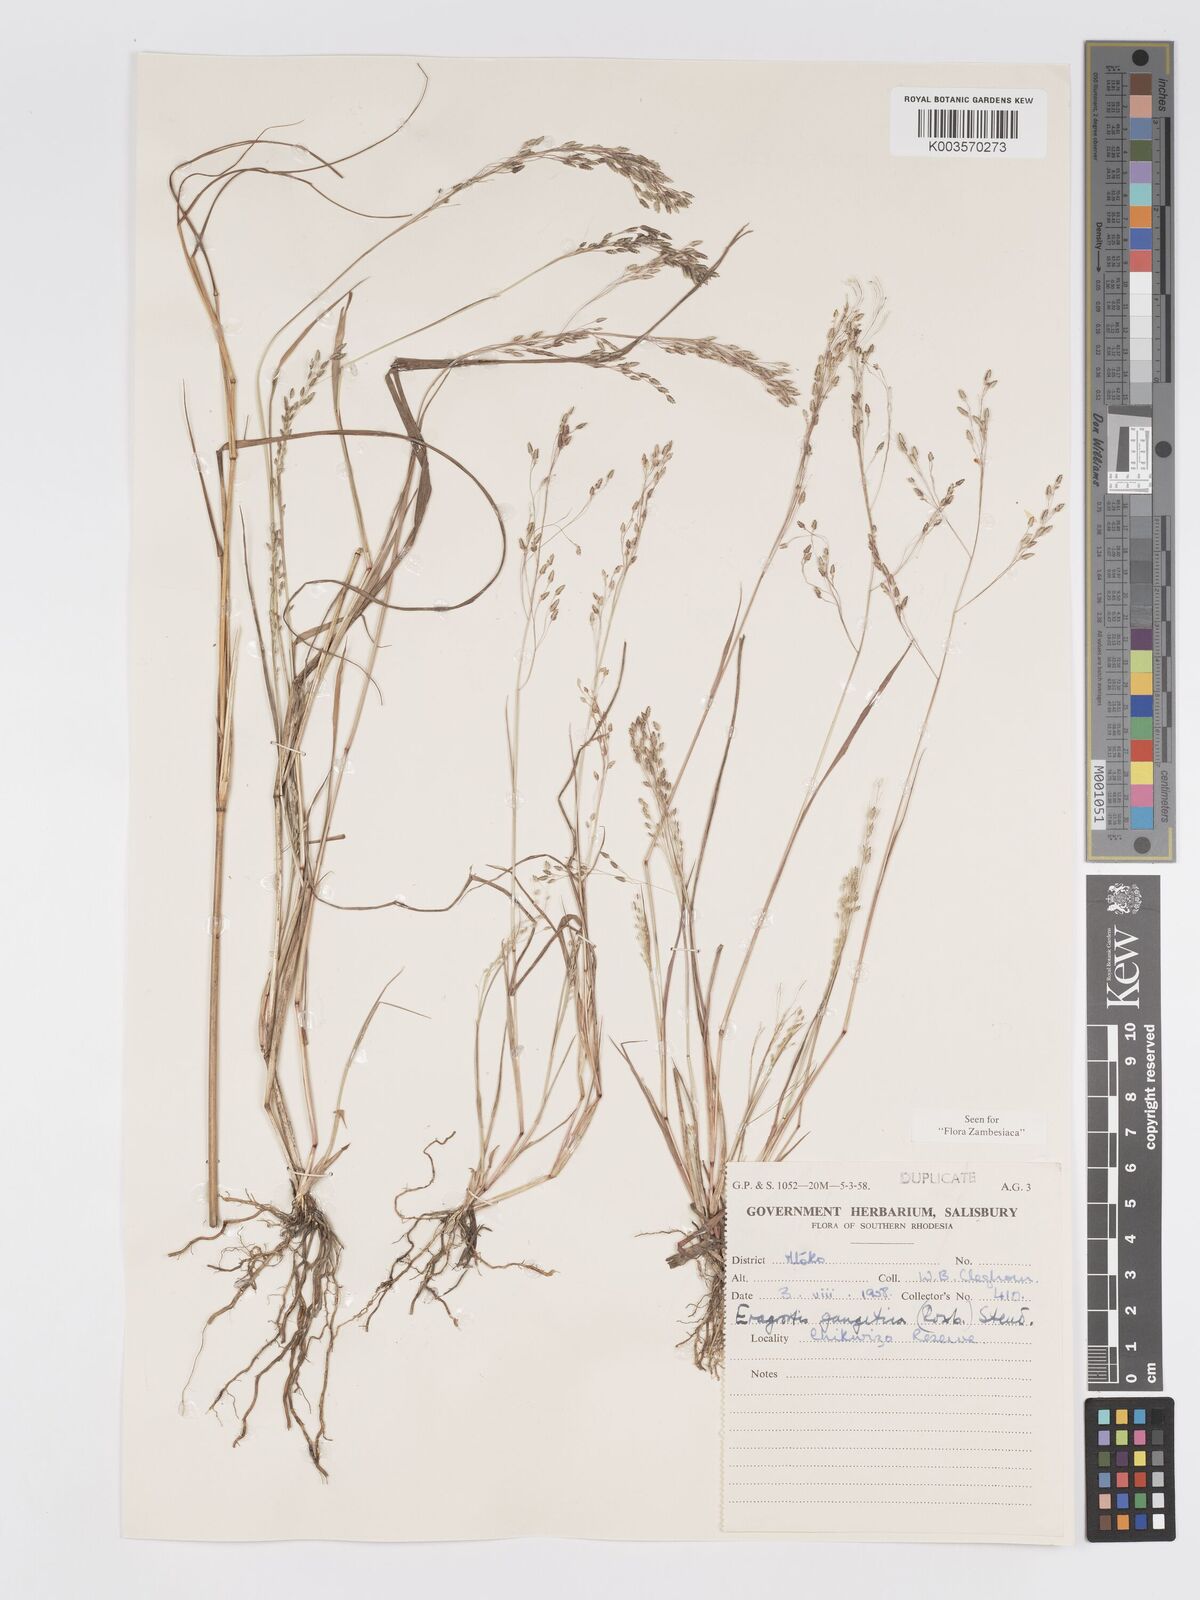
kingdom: Plantae
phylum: Tracheophyta
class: Liliopsida
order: Poales
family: Poaceae
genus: Eragrostis
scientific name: Eragrostis gangetica
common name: Slimflower lovegrass
